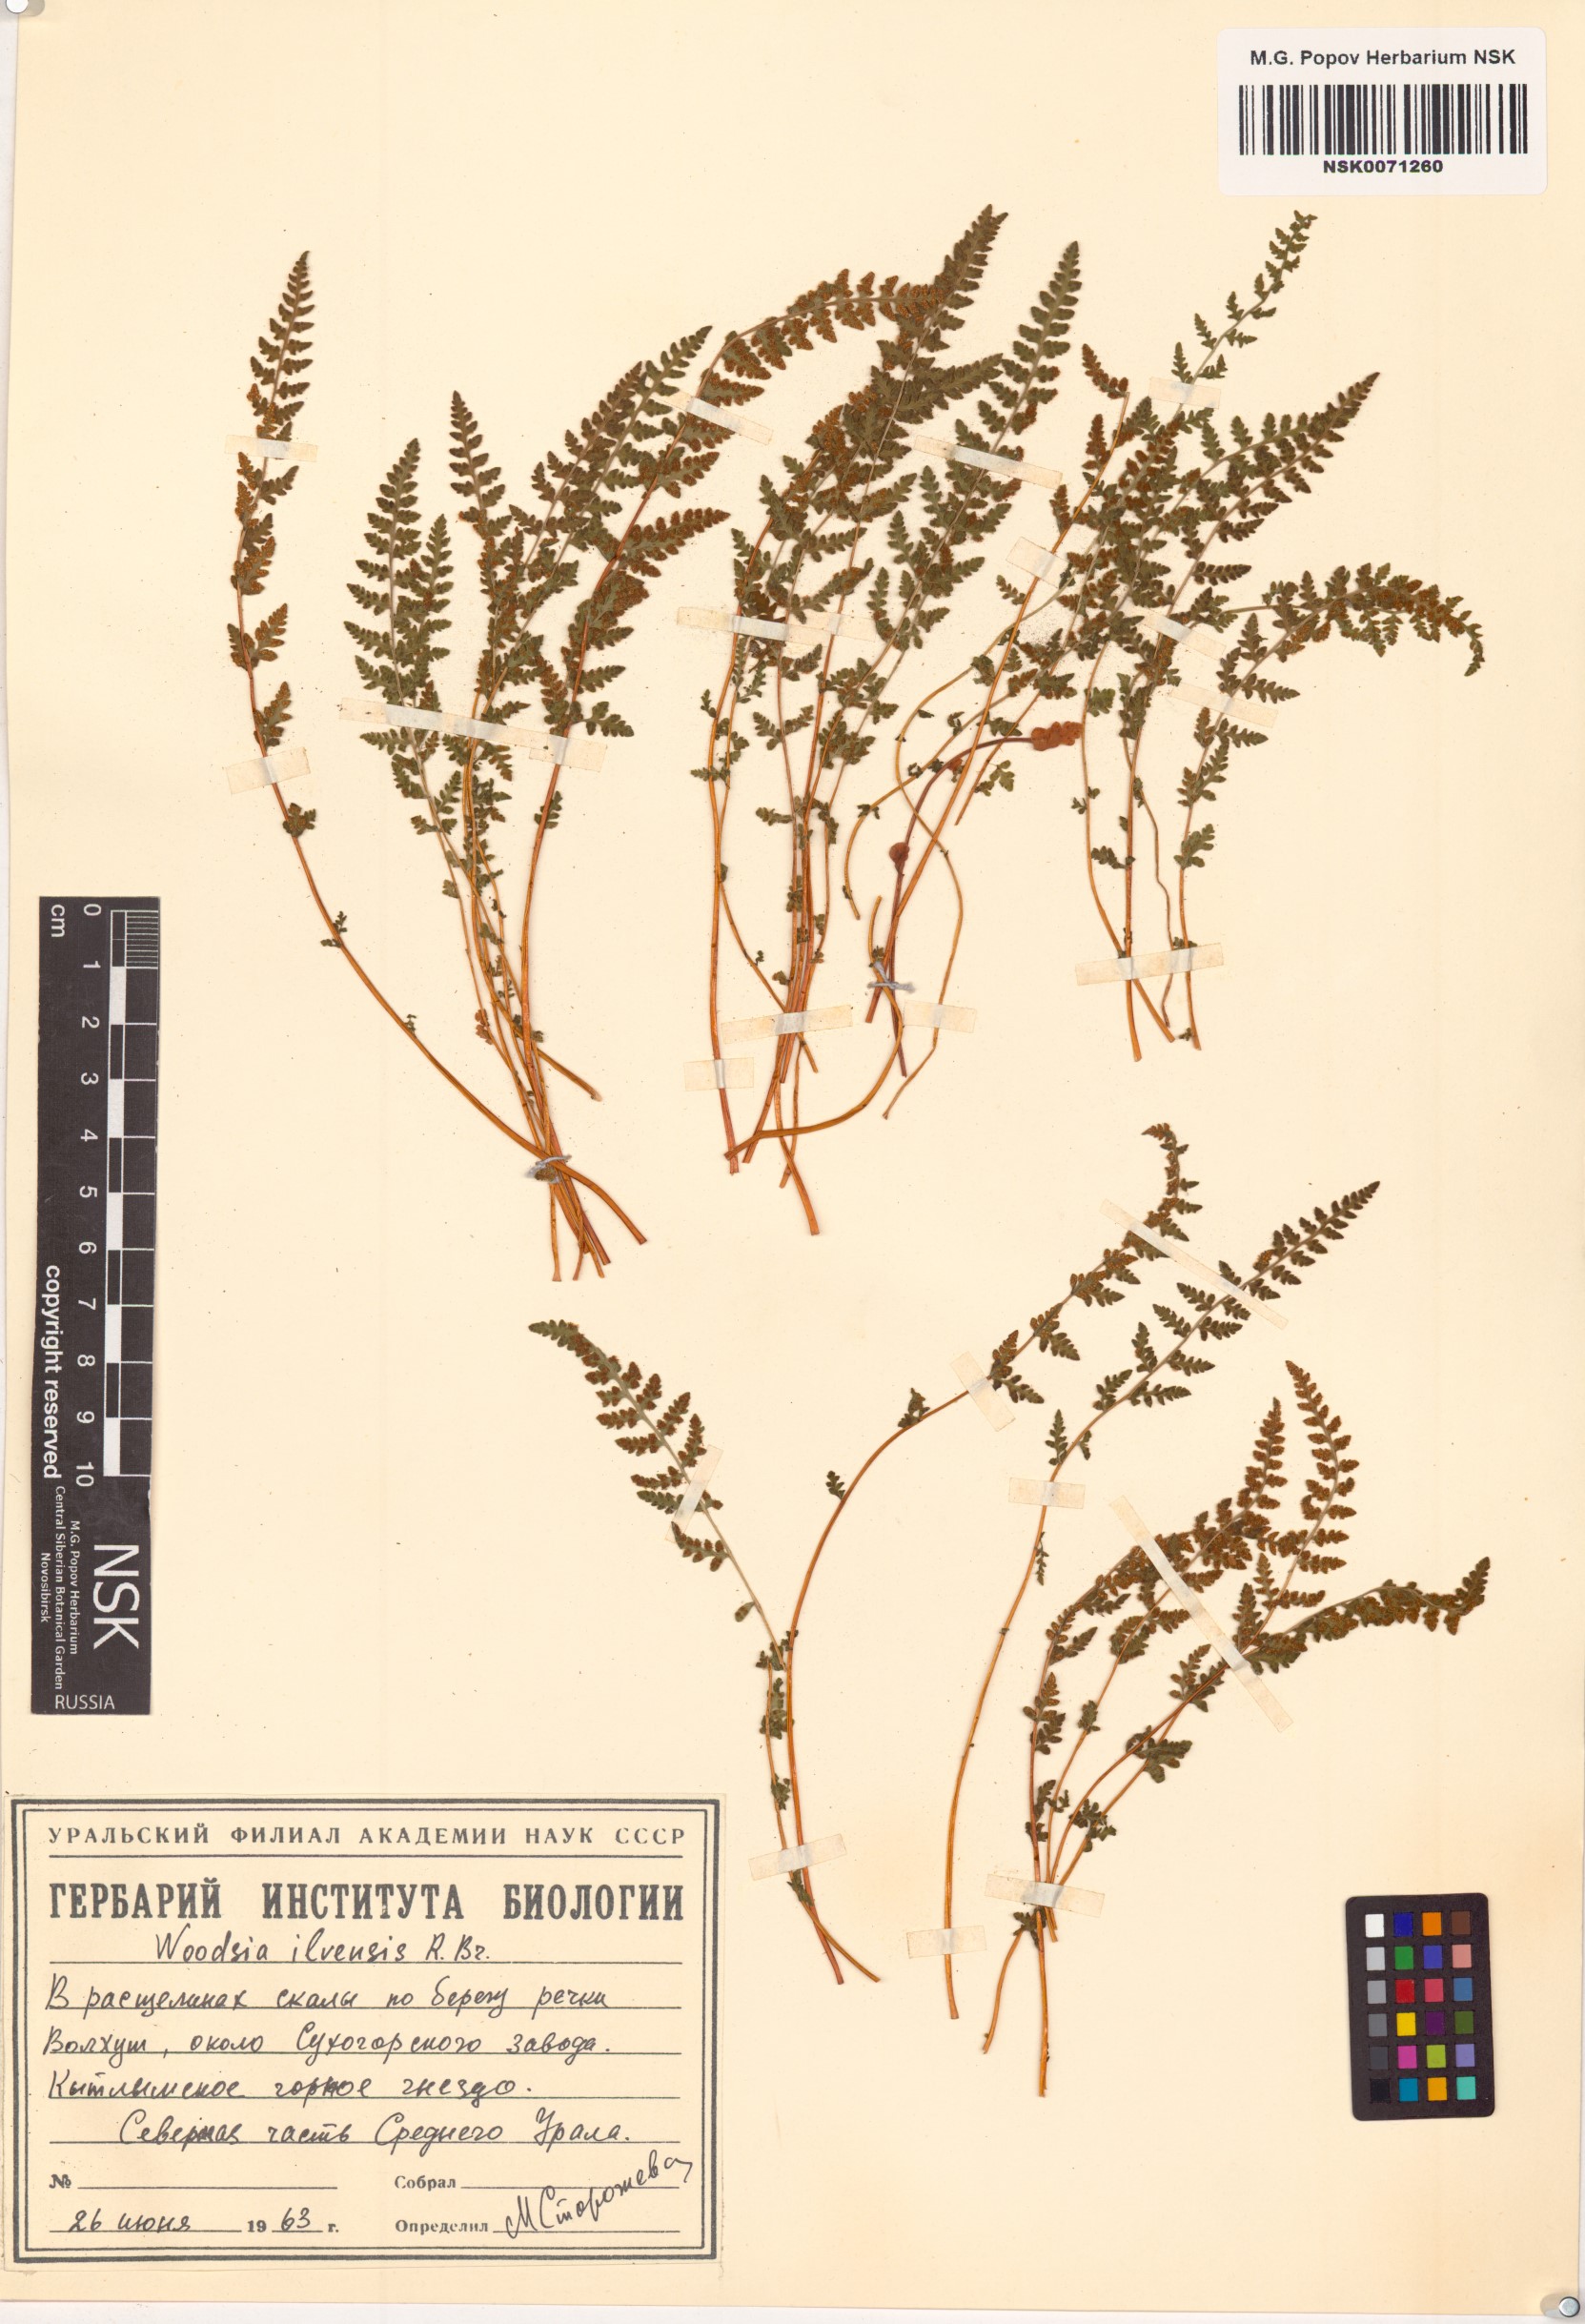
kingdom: Plantae
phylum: Tracheophyta
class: Polypodiopsida
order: Polypodiales
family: Woodsiaceae
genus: Woodsia
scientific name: Woodsia ilvensis
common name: Fragrant woodsia
